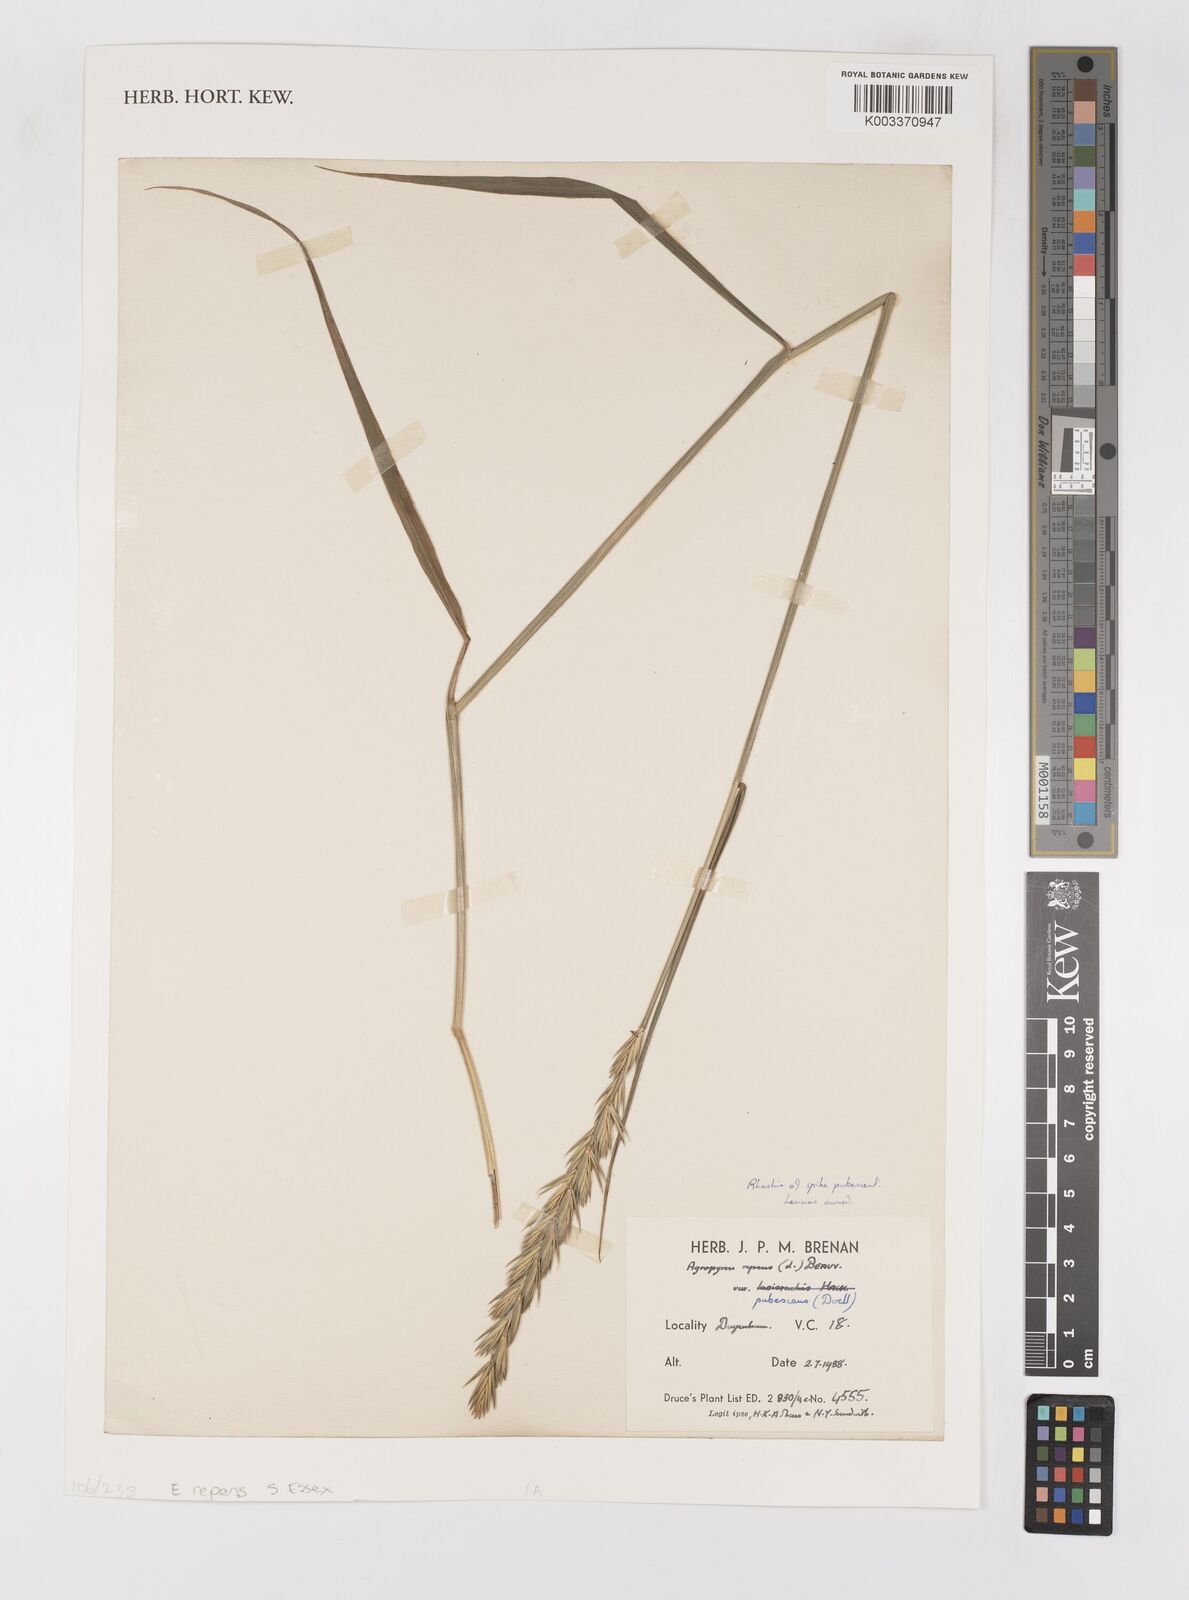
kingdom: Plantae
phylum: Tracheophyta
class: Liliopsida
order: Poales
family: Poaceae
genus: Elymus
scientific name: Elymus repens
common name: Quackgrass
